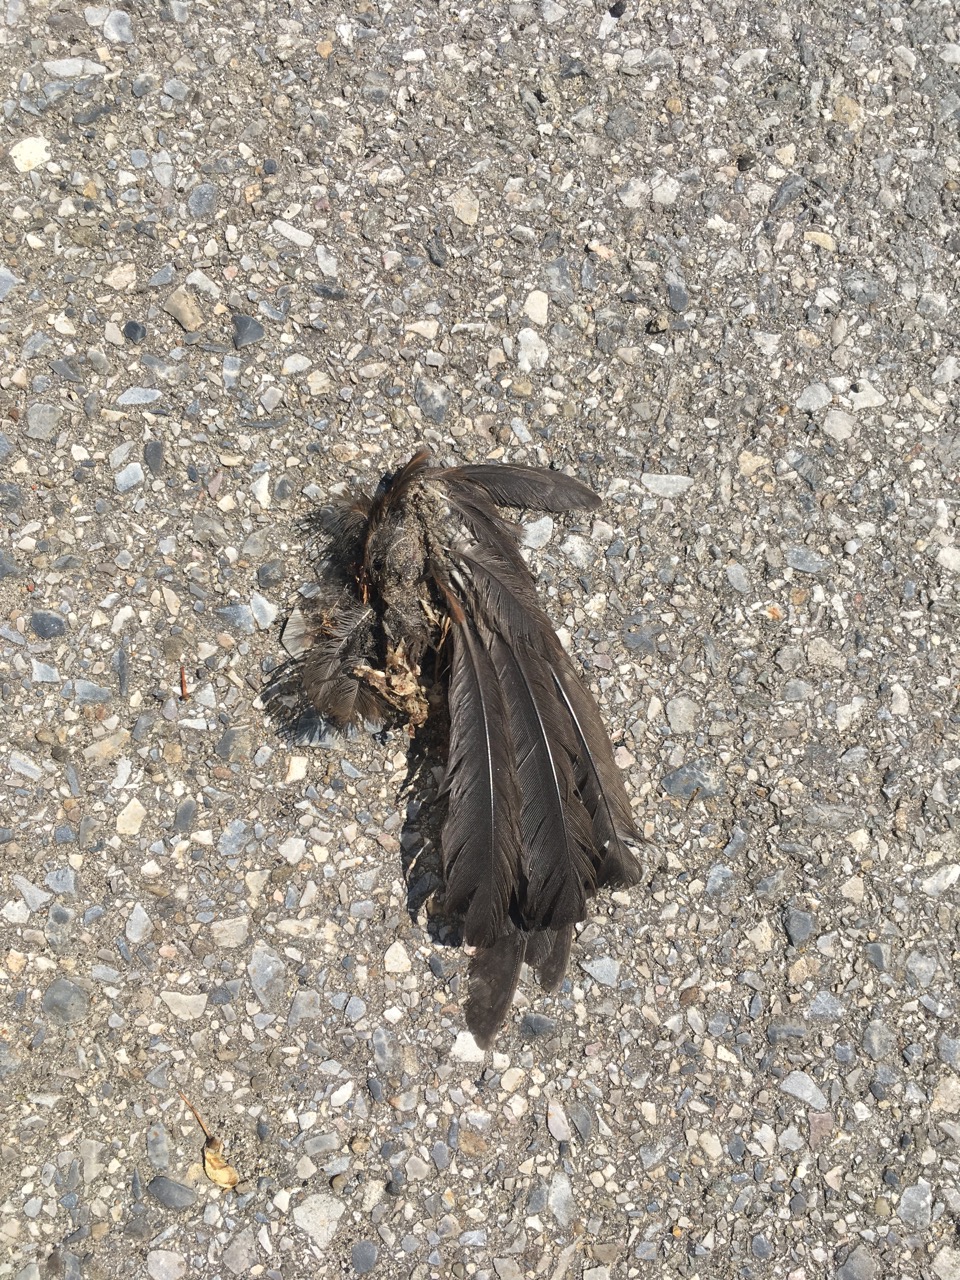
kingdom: Animalia
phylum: Chordata
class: Aves
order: Passeriformes
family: Turdidae
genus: Turdus
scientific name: Turdus merula
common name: Common blackbird
